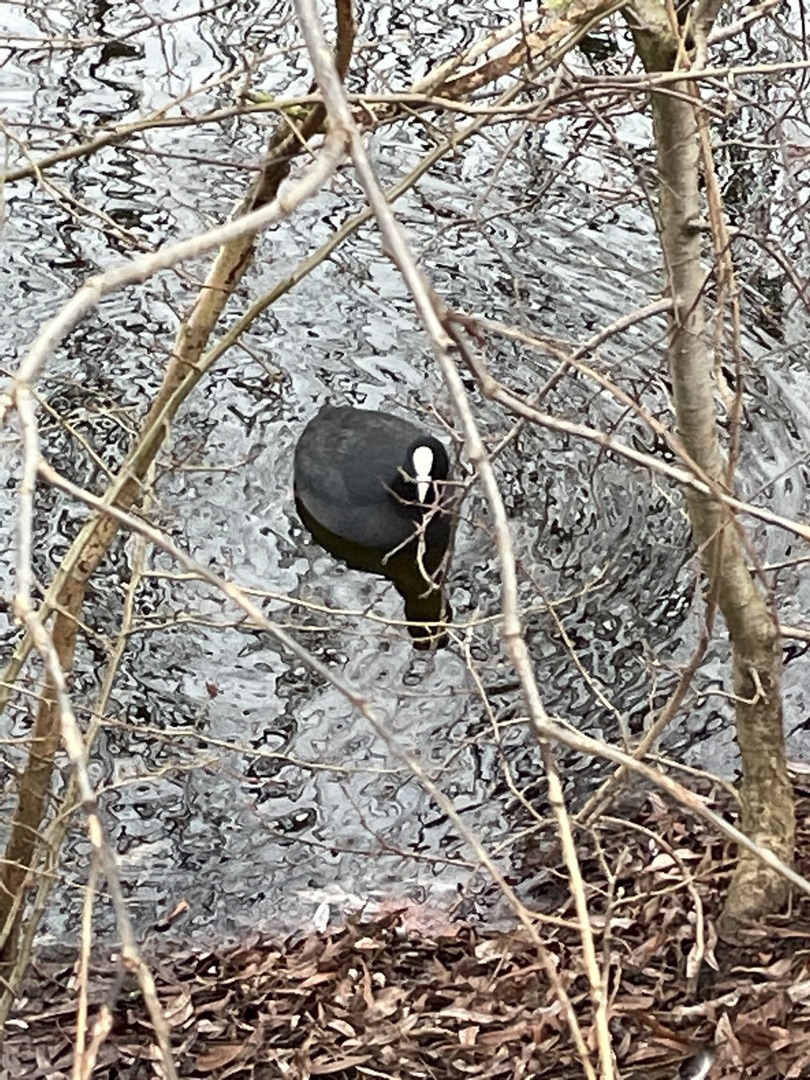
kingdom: Animalia
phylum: Chordata
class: Aves
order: Gruiformes
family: Rallidae
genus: Fulica
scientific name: Fulica atra
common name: Blishøne
